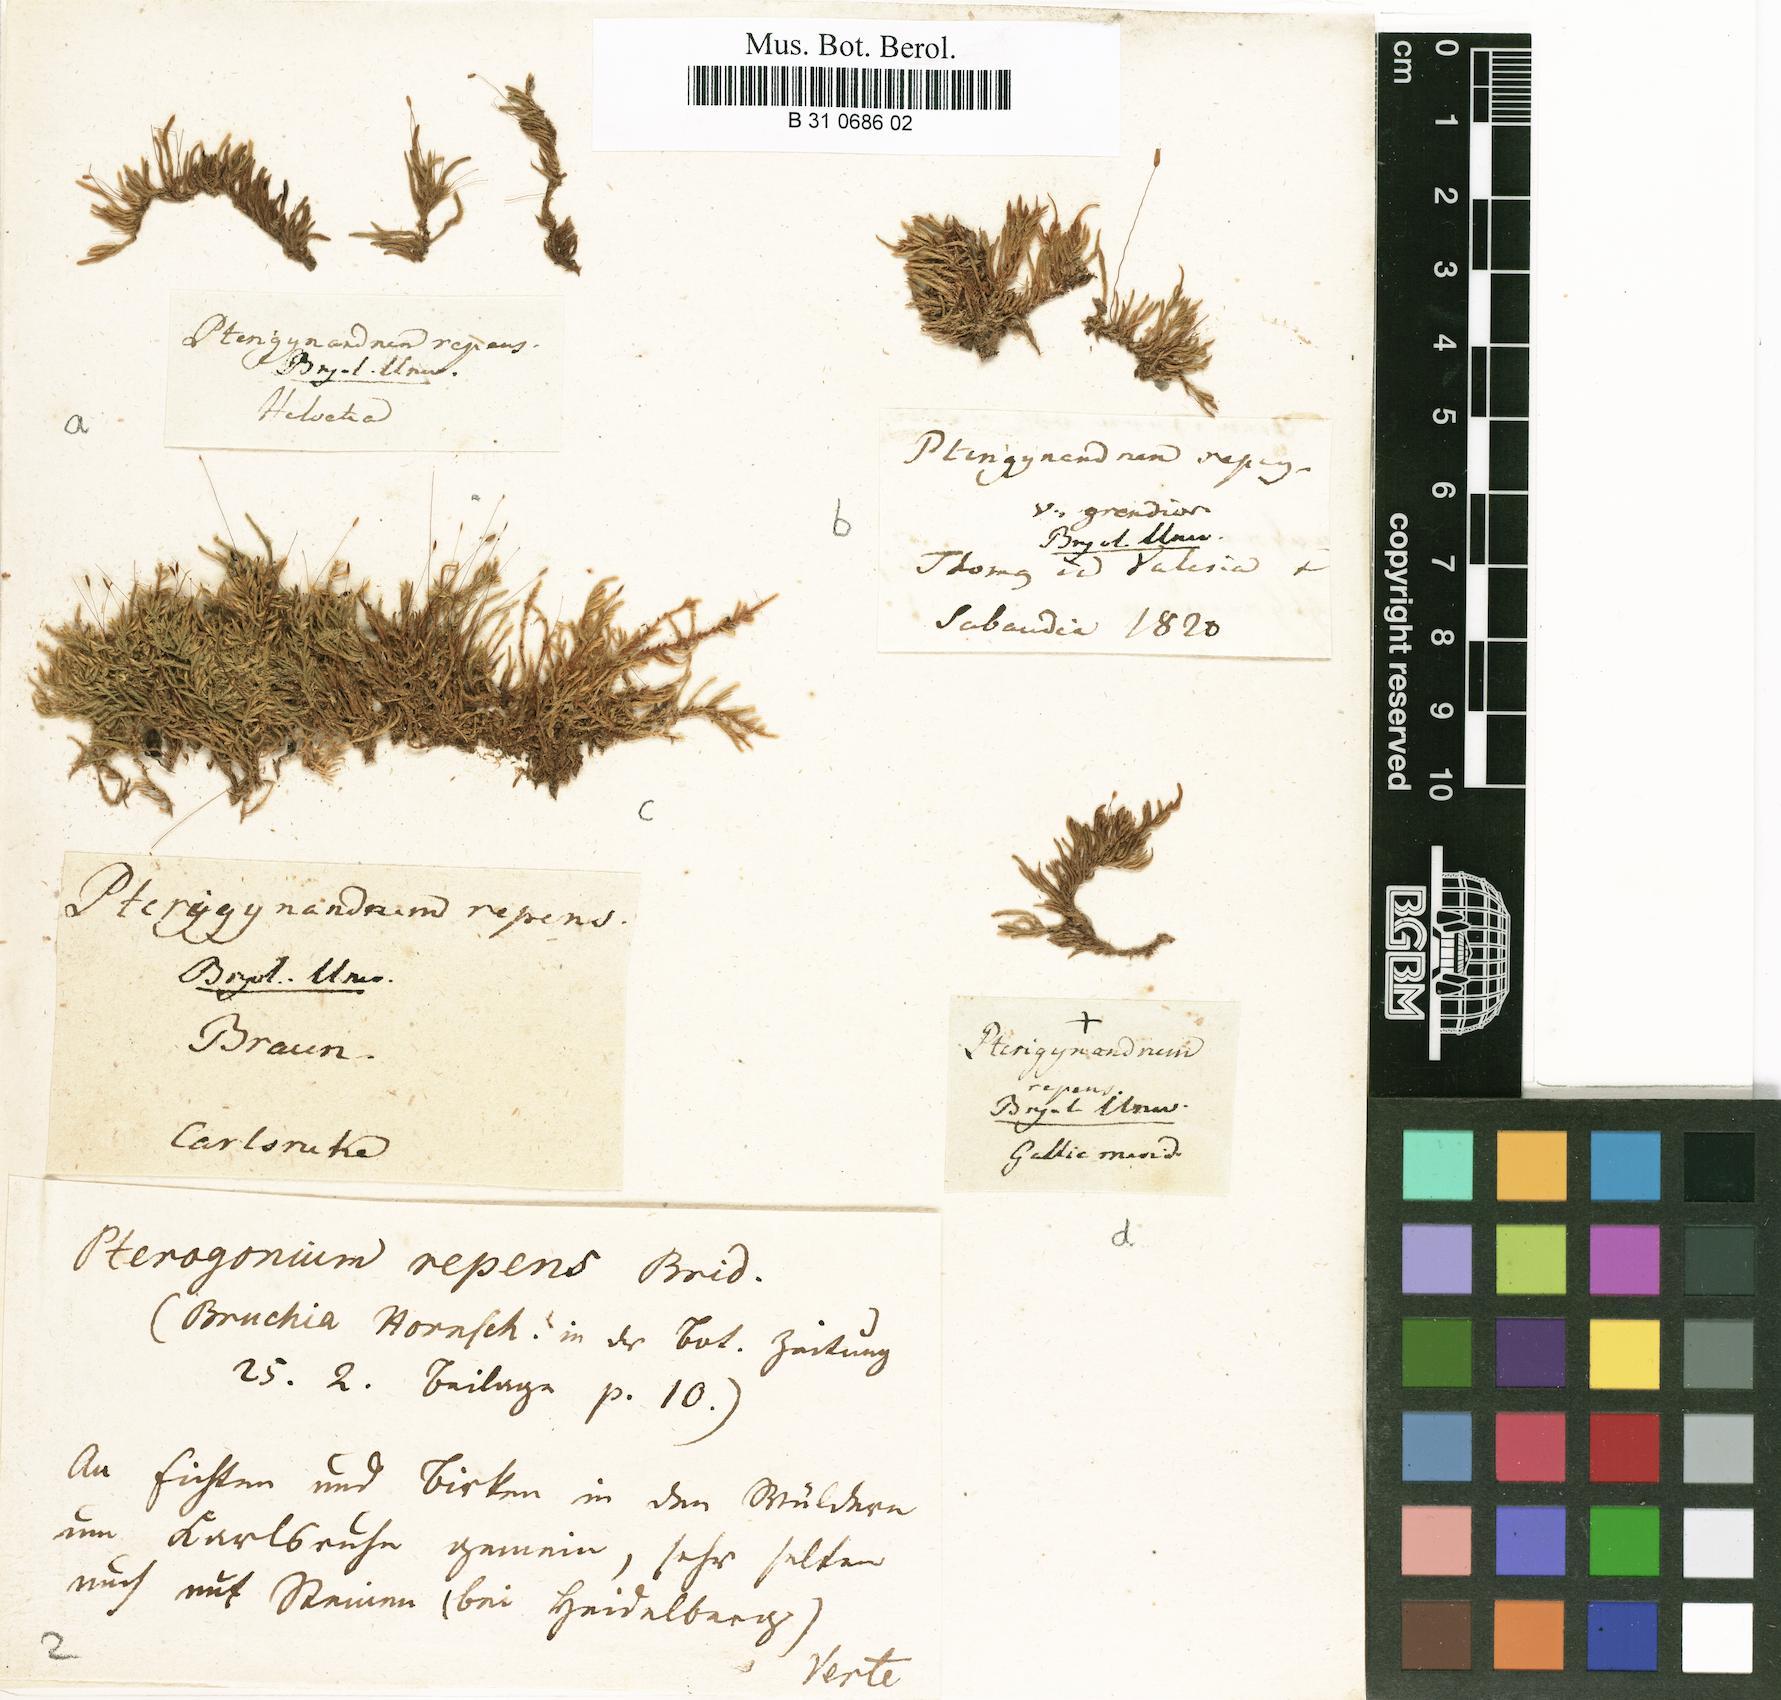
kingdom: Plantae
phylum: Bryophyta
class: Bryopsida
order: Hypnales
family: Pylaisiadelphaceae
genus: Platygyrium
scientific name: Platygyrium repens
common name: Flat-brocade moss
